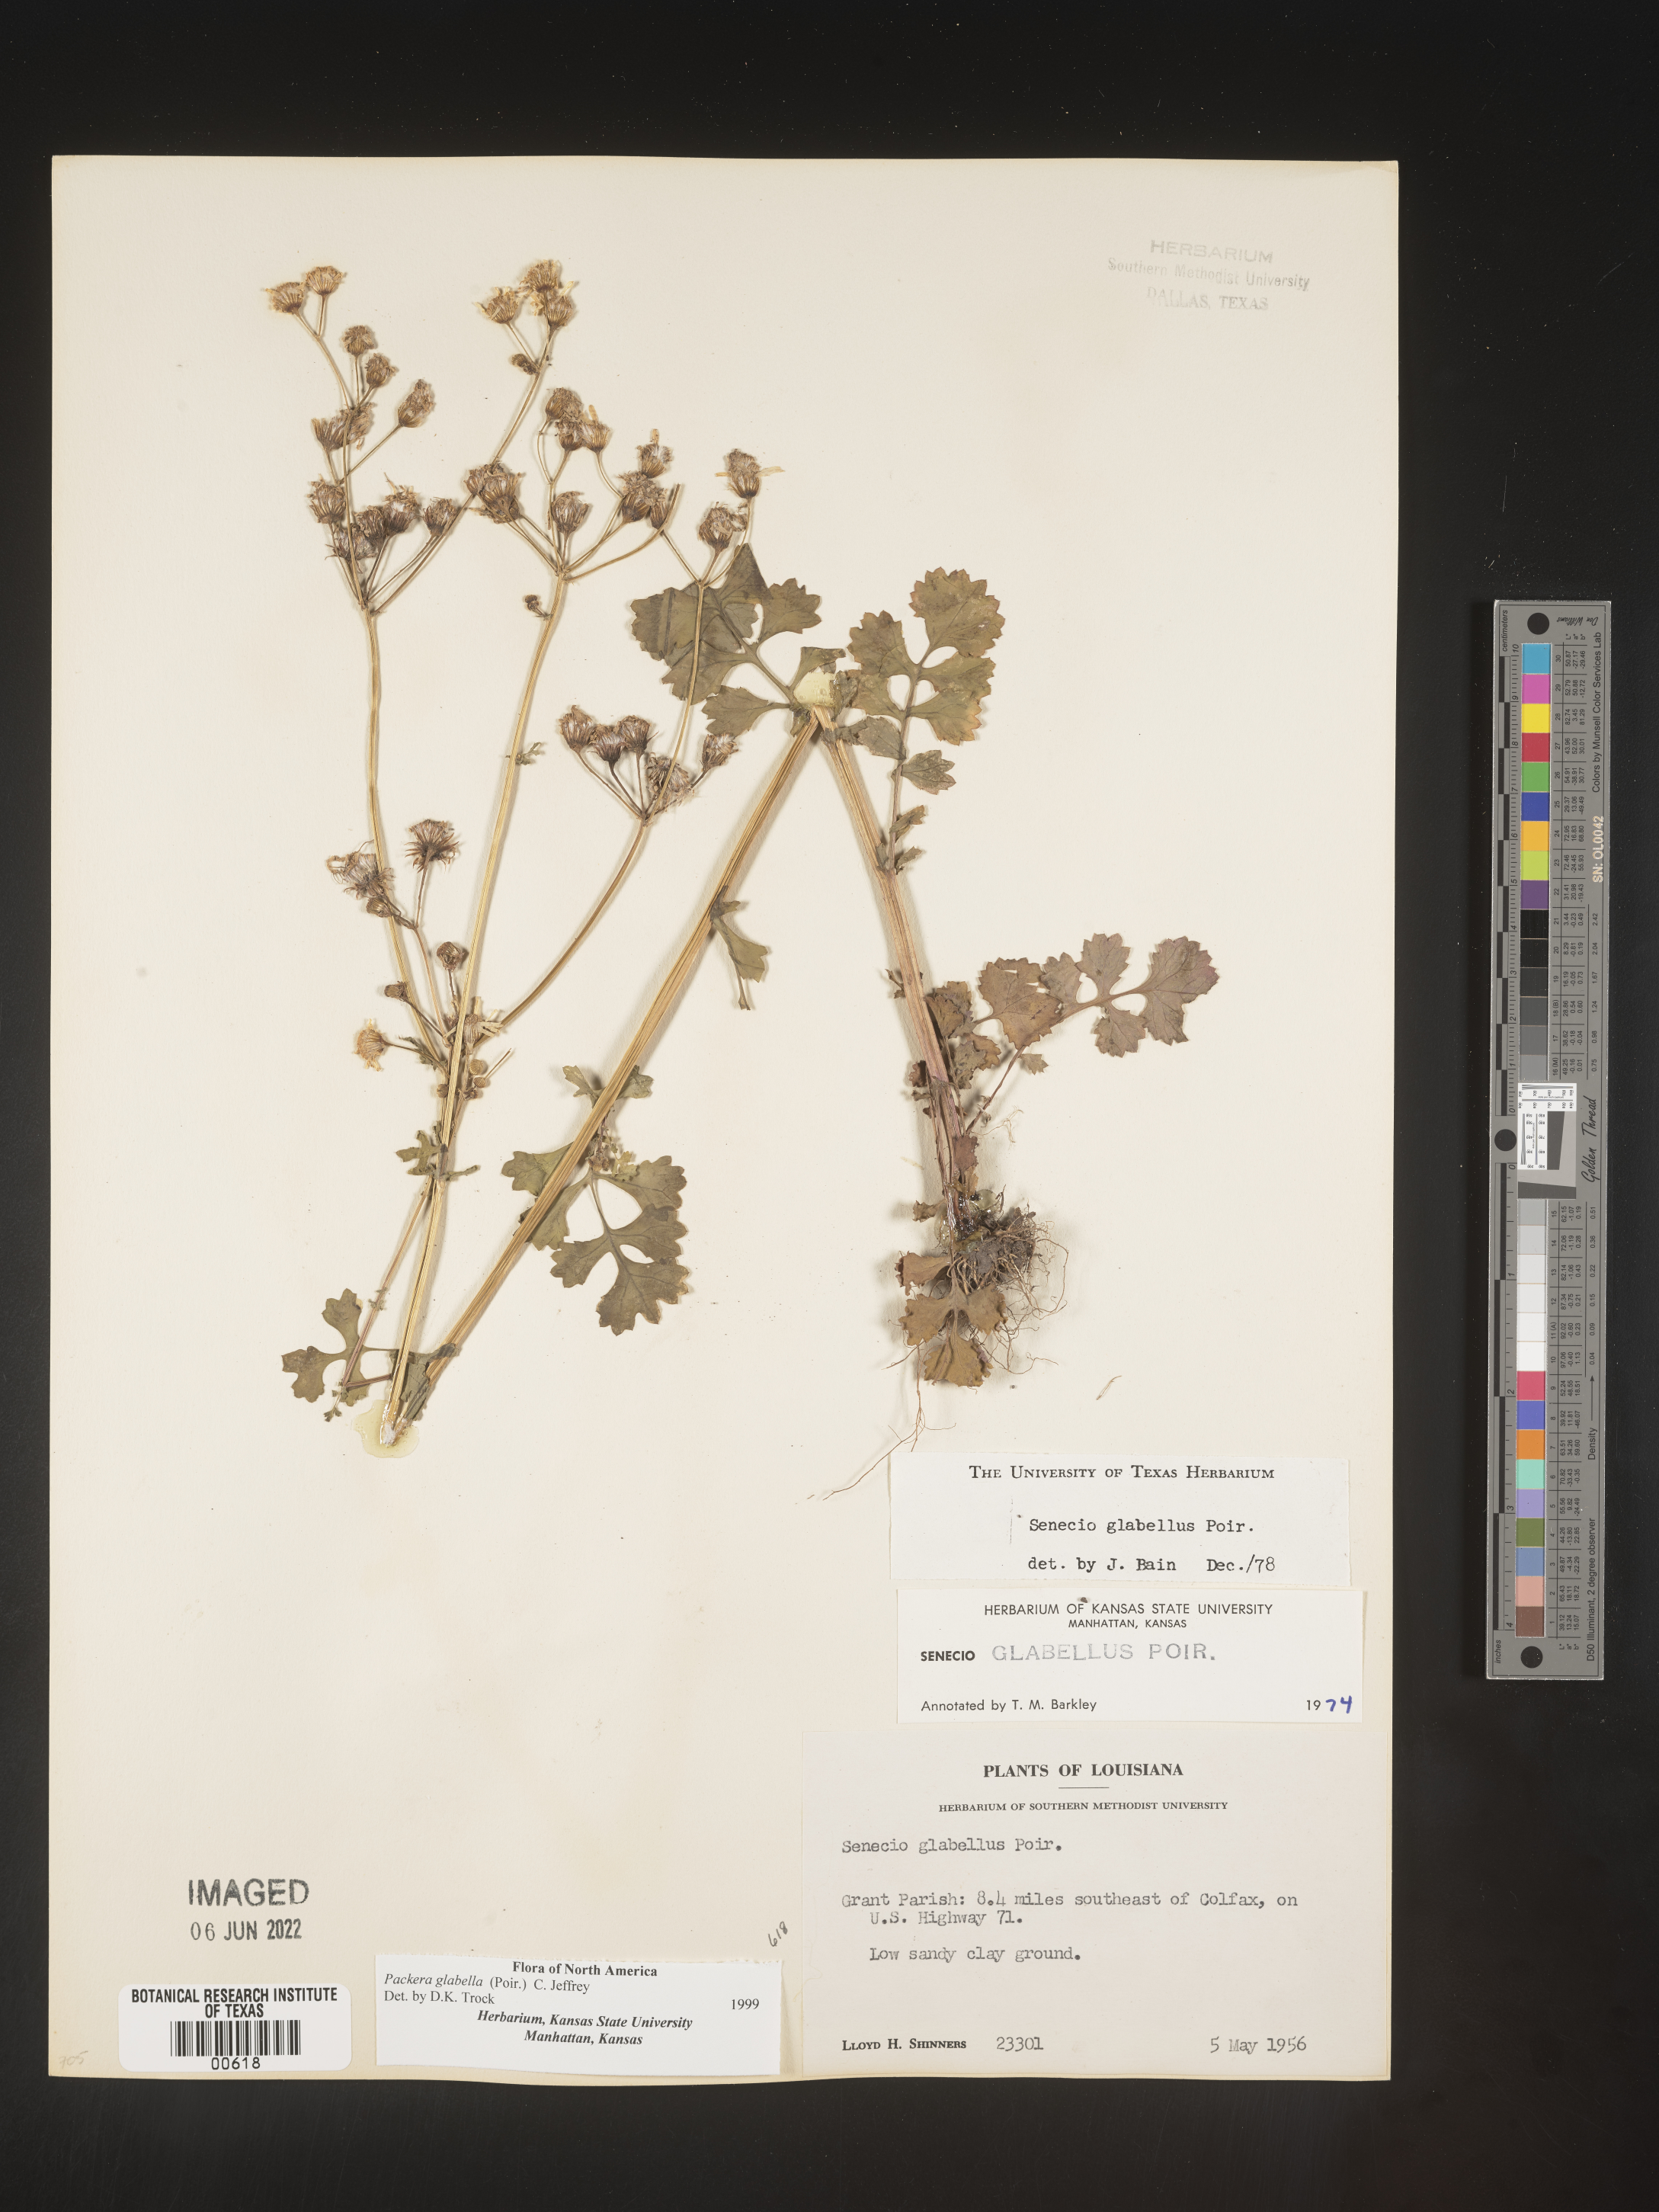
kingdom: Plantae
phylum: Tracheophyta
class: Magnoliopsida
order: Asterales
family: Asteraceae
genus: Packera
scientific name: Packera glabella
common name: Butterweed
